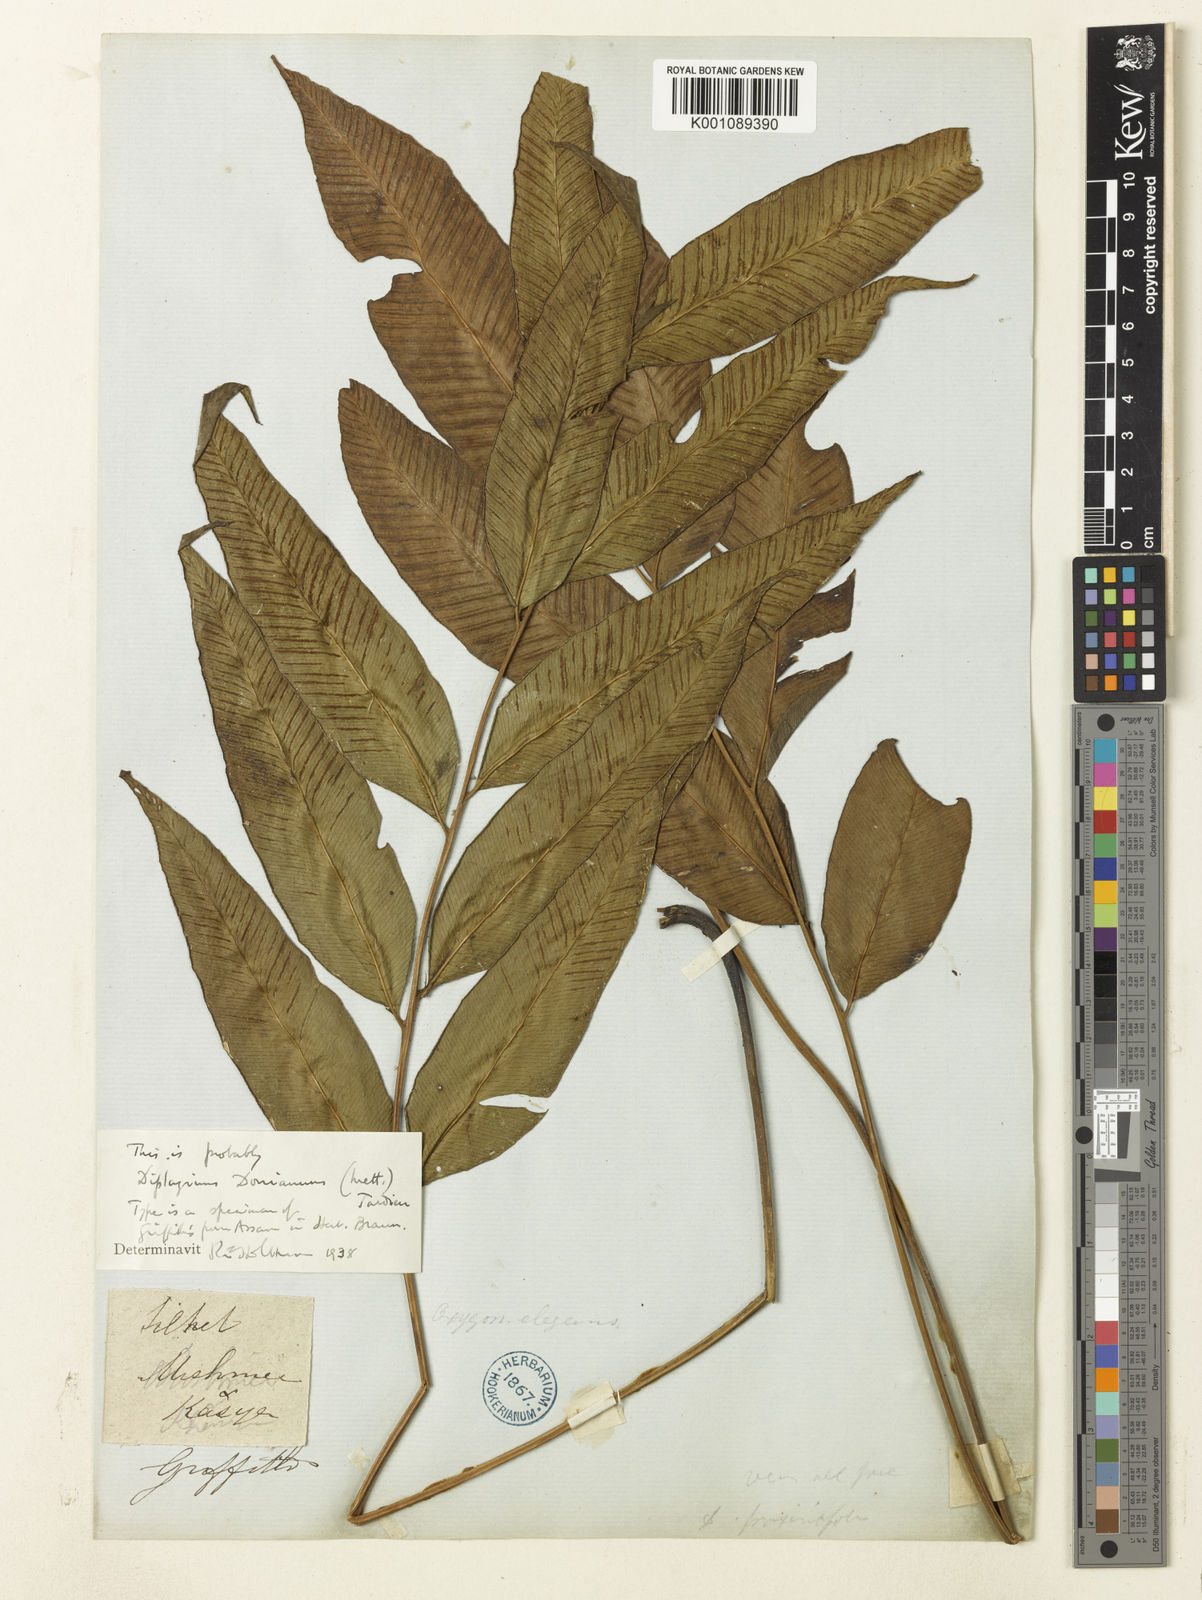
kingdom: Plantae
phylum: Tracheophyta
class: Polypodiopsida
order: Polypodiales
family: Athyriaceae
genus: Diplazium
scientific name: Diplazium lineolatum
